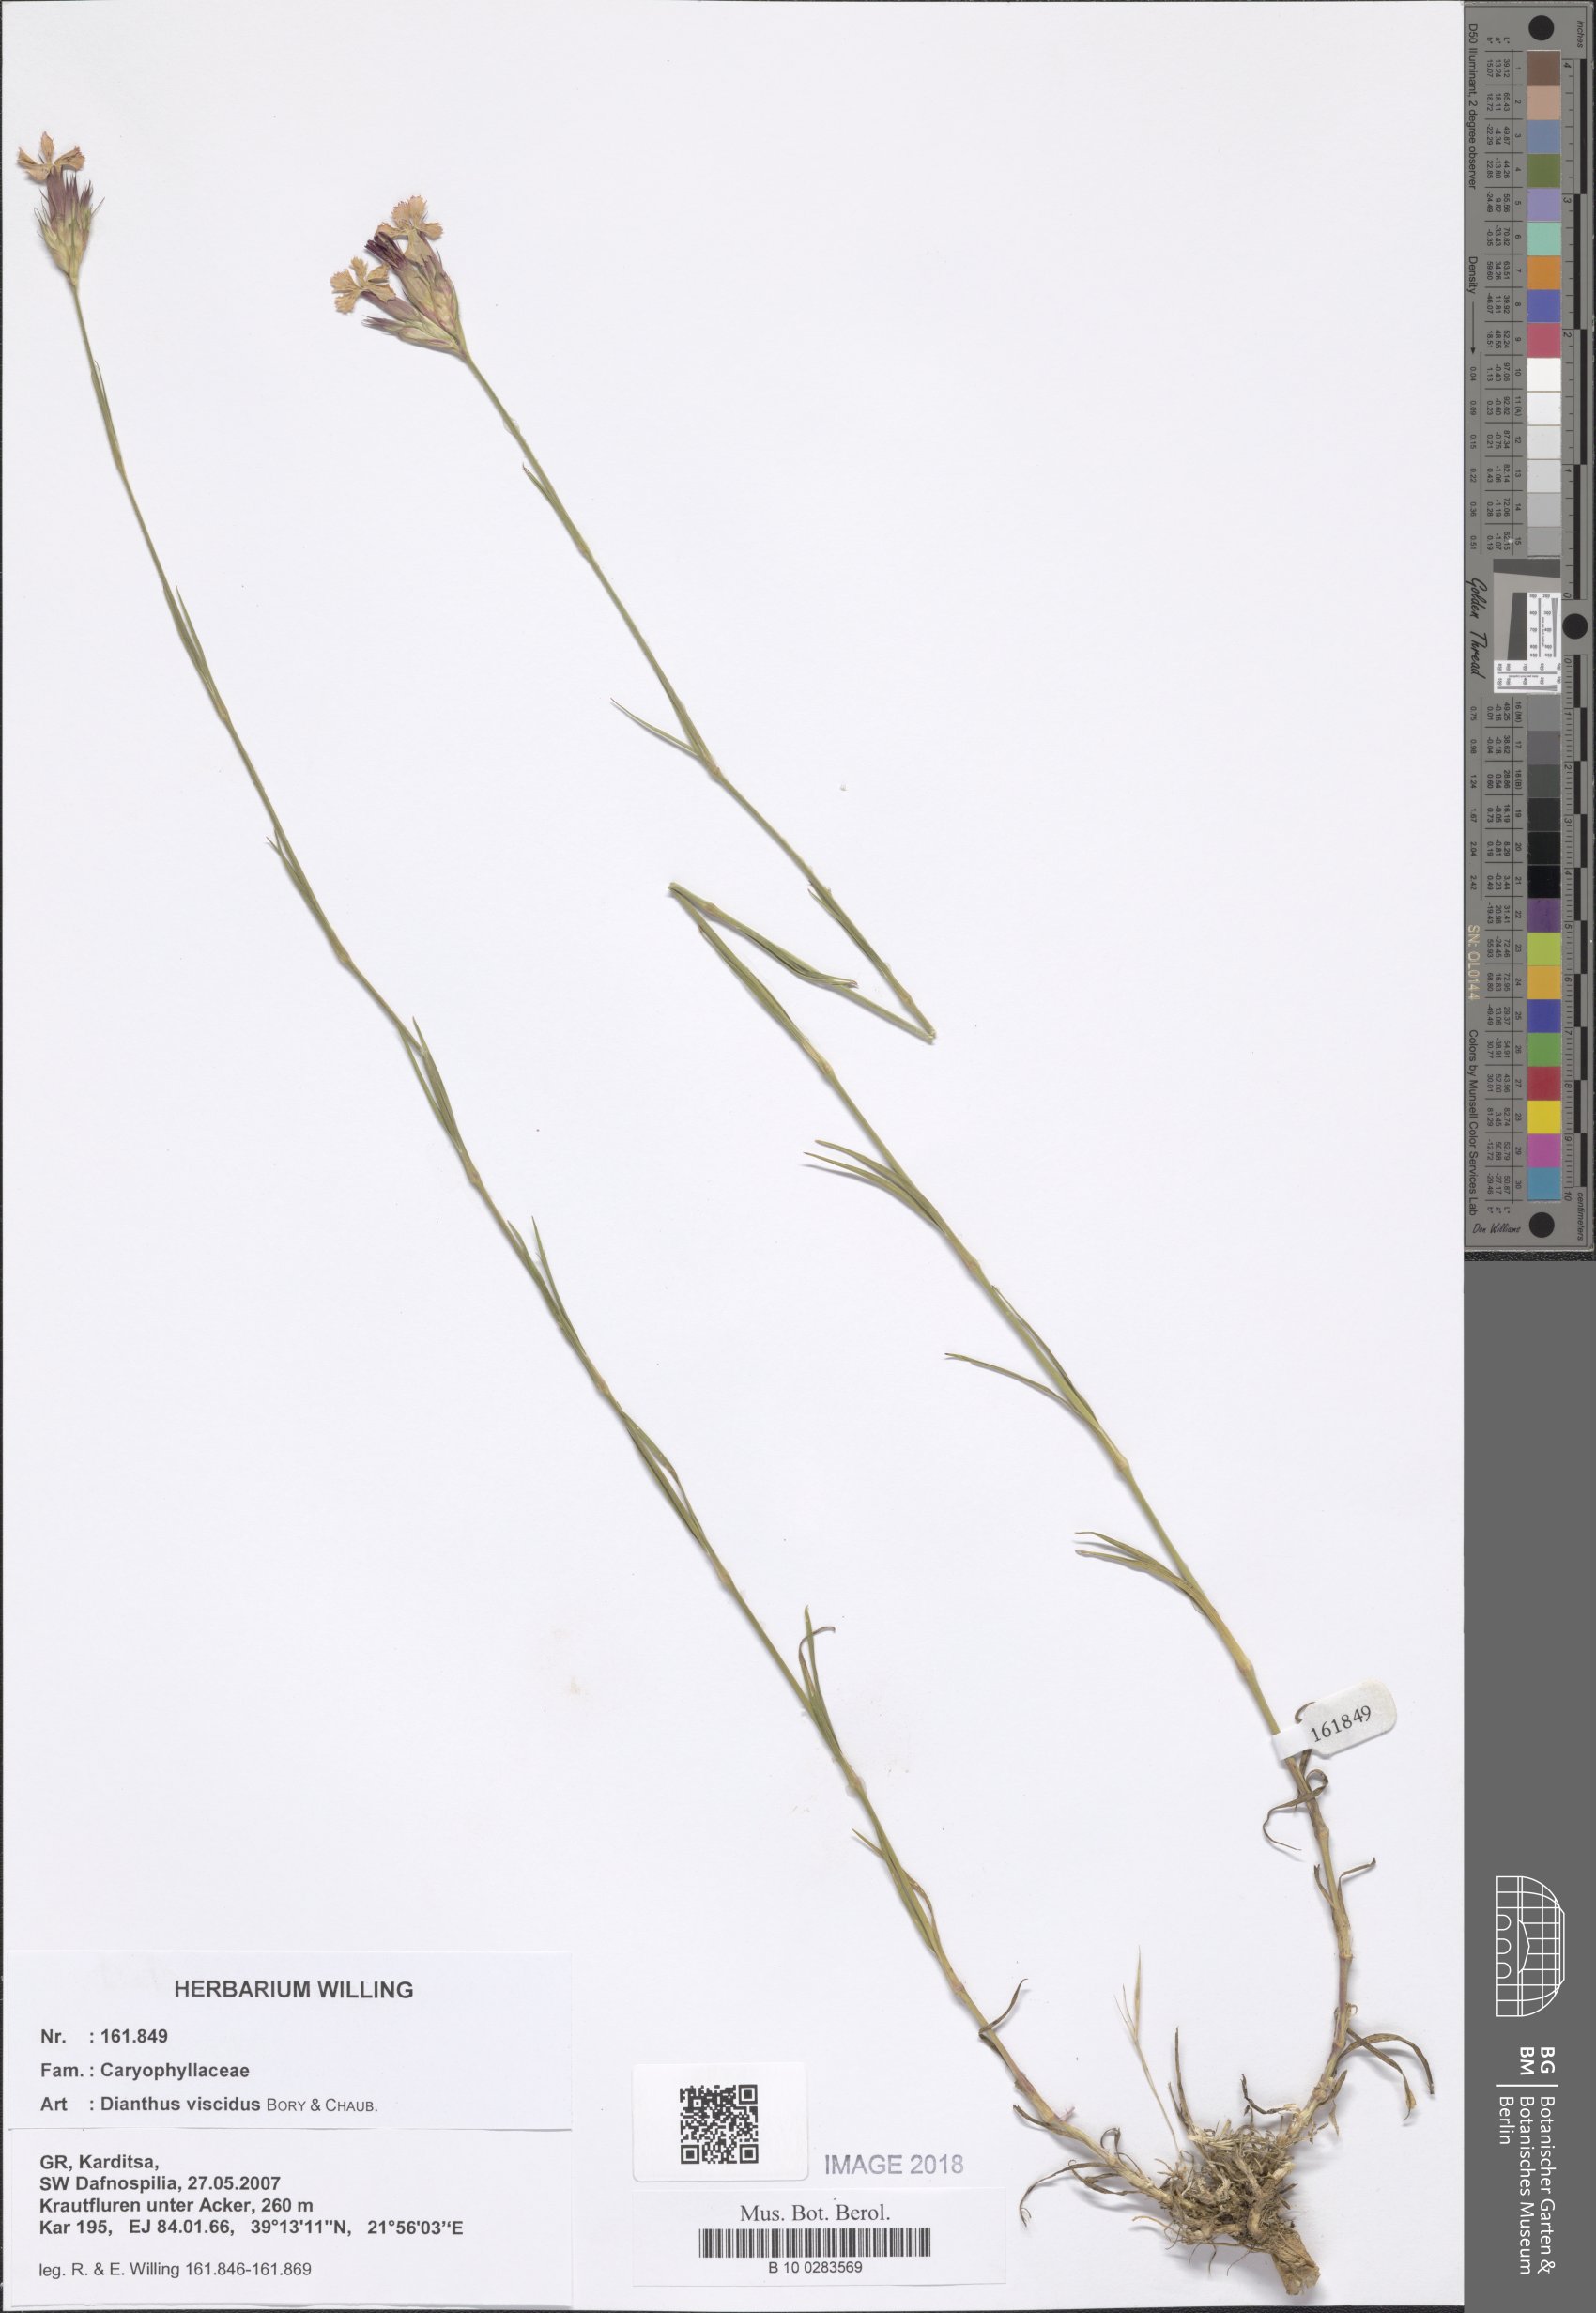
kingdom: Plantae
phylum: Tracheophyta
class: Magnoliopsida
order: Caryophyllales
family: Caryophyllaceae
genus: Dianthus
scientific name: Dianthus viscidus
